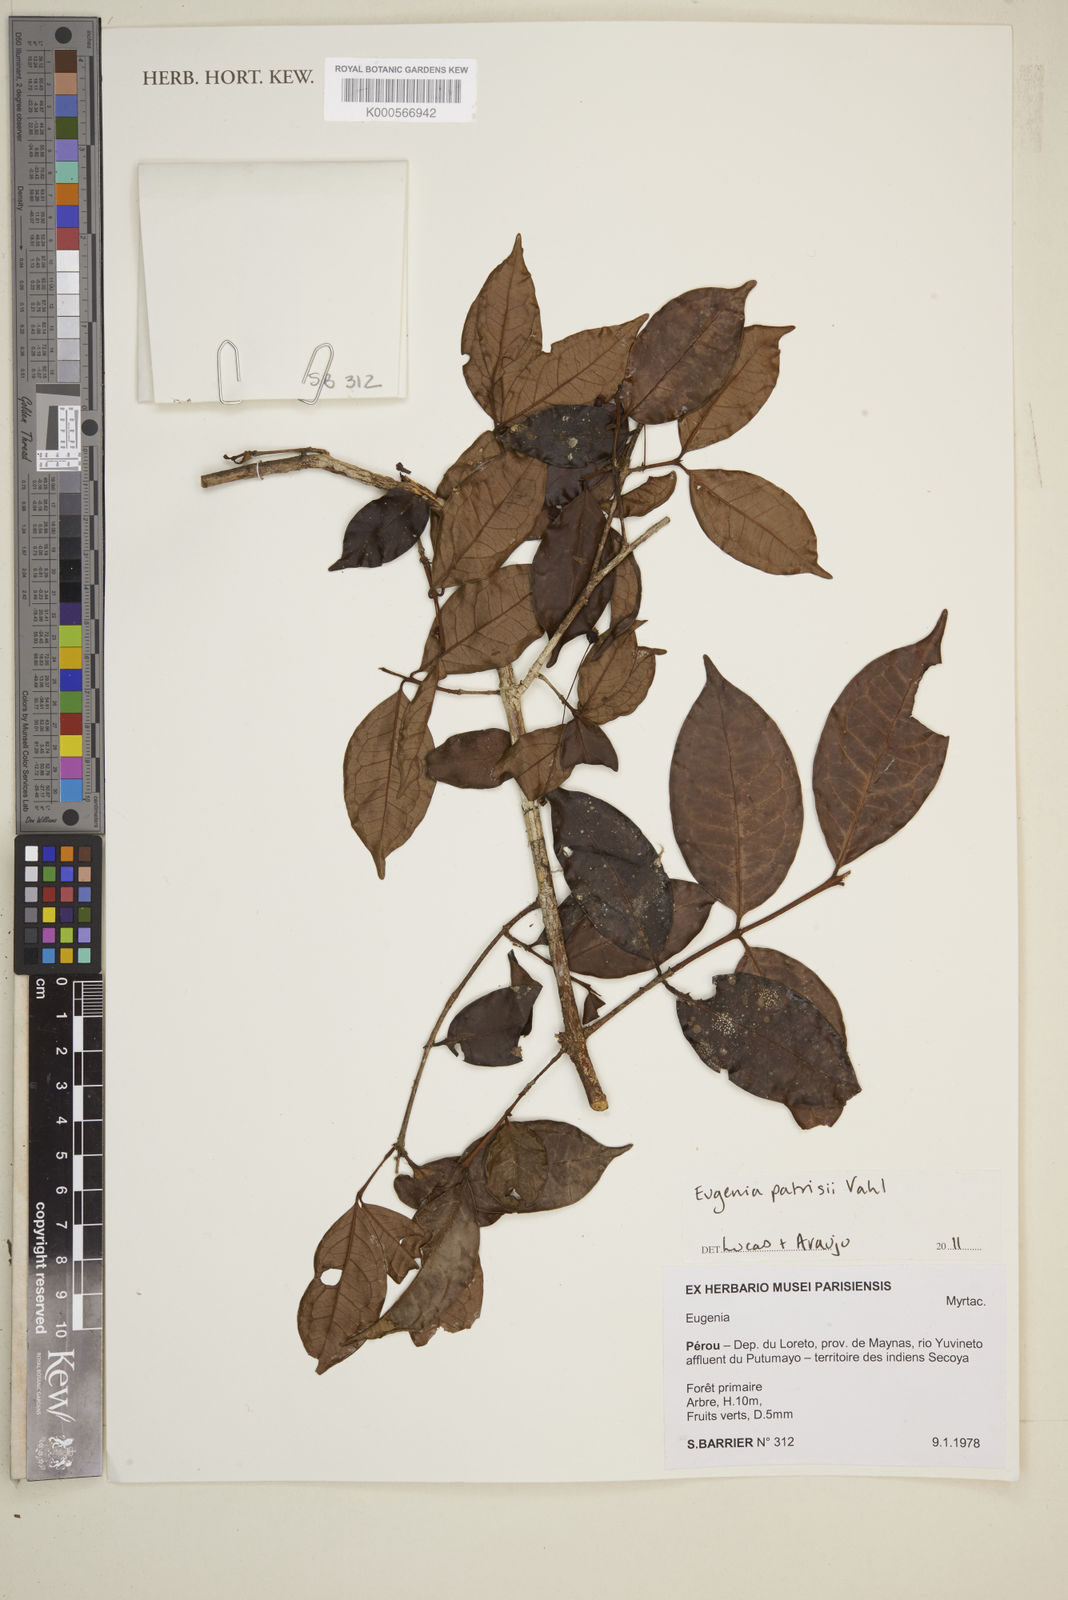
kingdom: Plantae
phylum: Tracheophyta
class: Magnoliopsida
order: Myrtales
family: Myrtaceae
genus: Eugenia
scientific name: Eugenia patrisii
